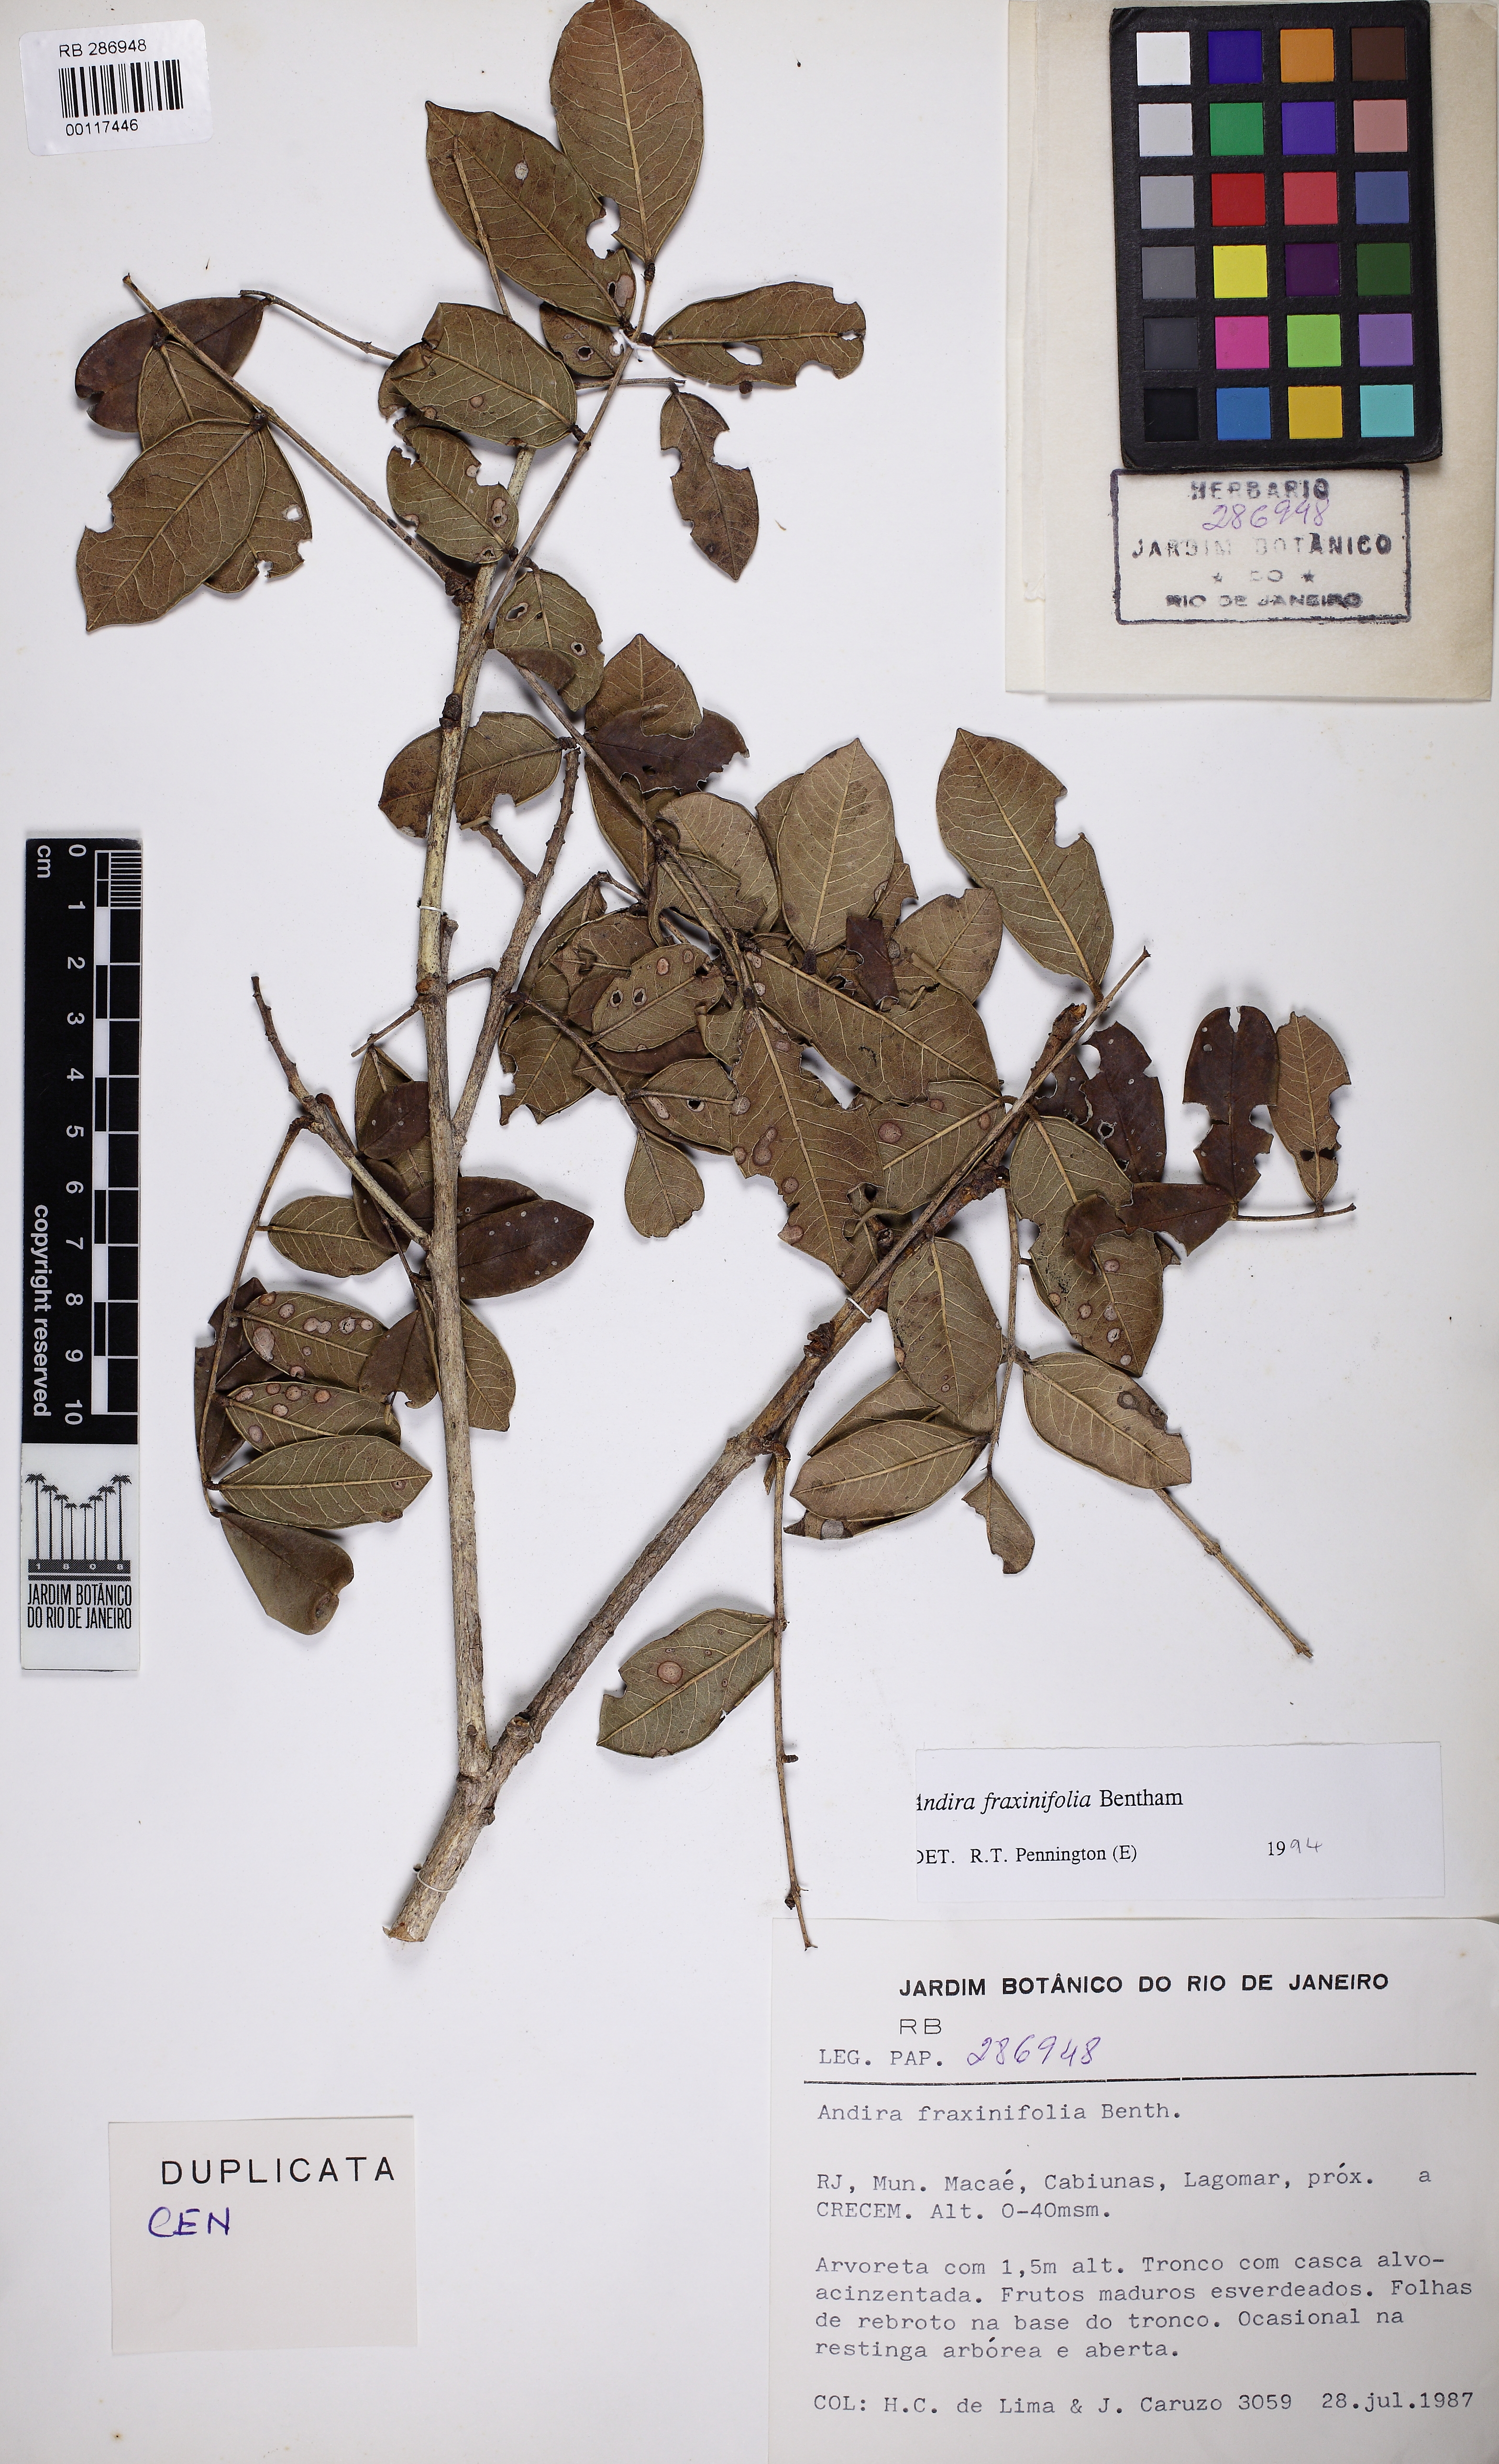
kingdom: Plantae
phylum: Tracheophyta
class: Magnoliopsida
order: Fabales
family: Fabaceae
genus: Andira
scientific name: Andira fraxinifolia
